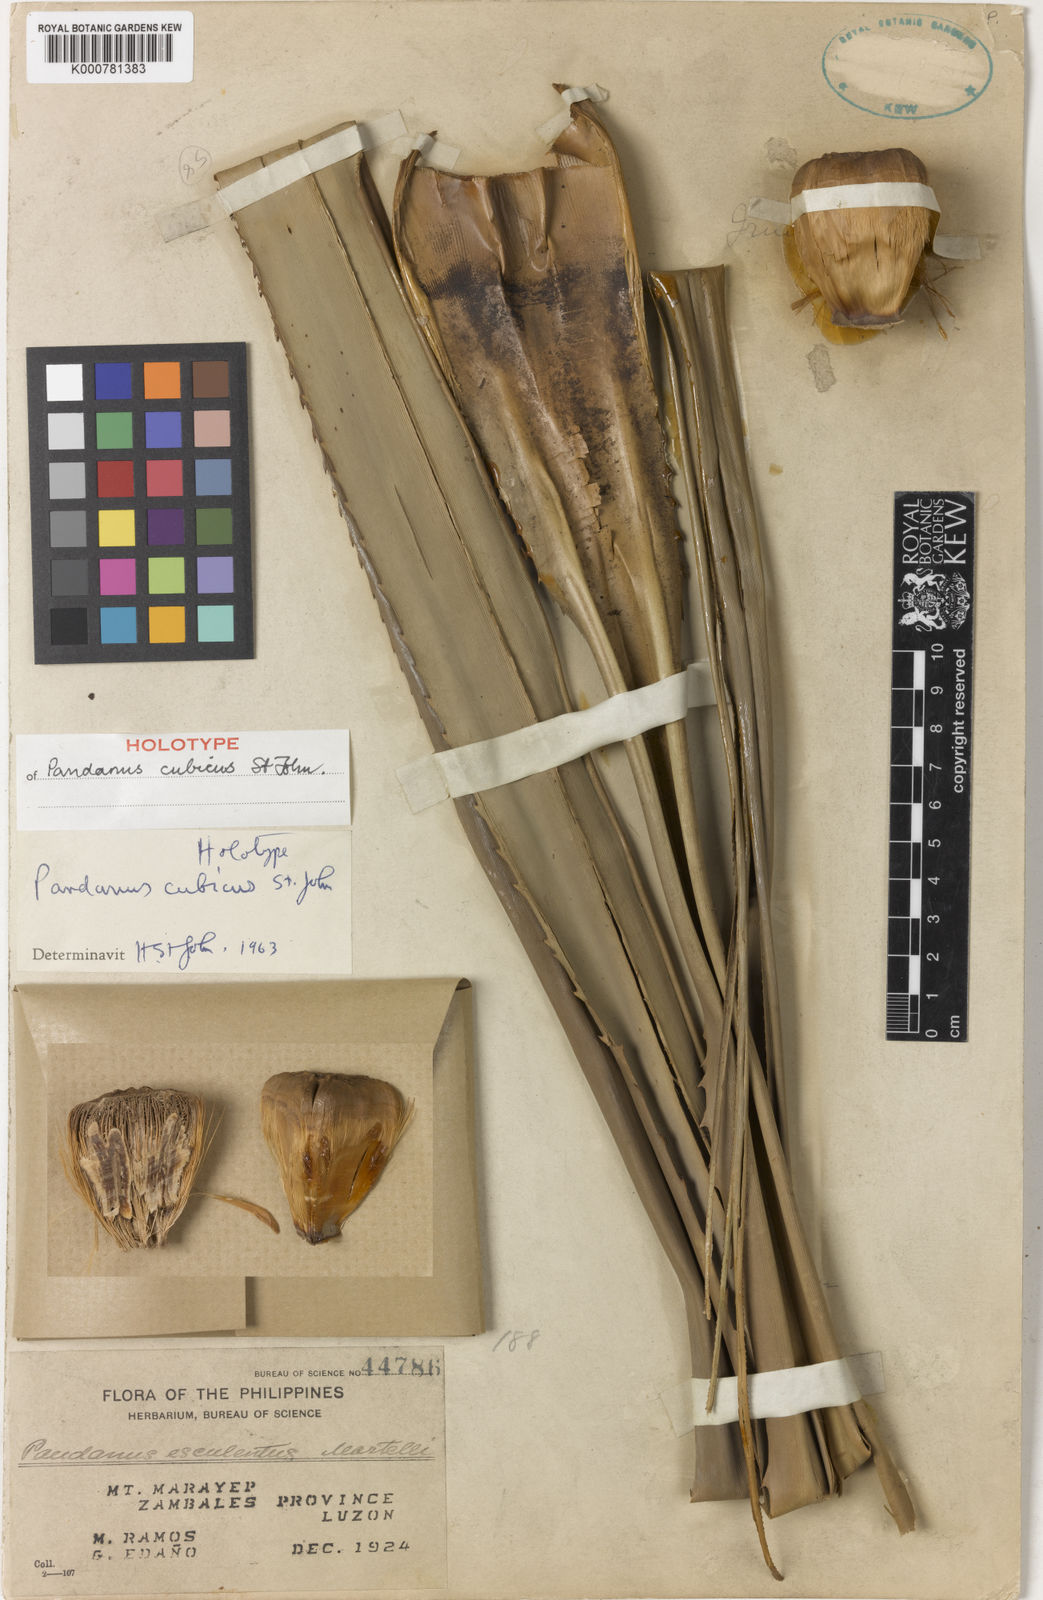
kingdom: Plantae
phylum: Tracheophyta
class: Liliopsida
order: Pandanales
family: Pandanaceae
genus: Pandanus
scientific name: Pandanus cubicus
